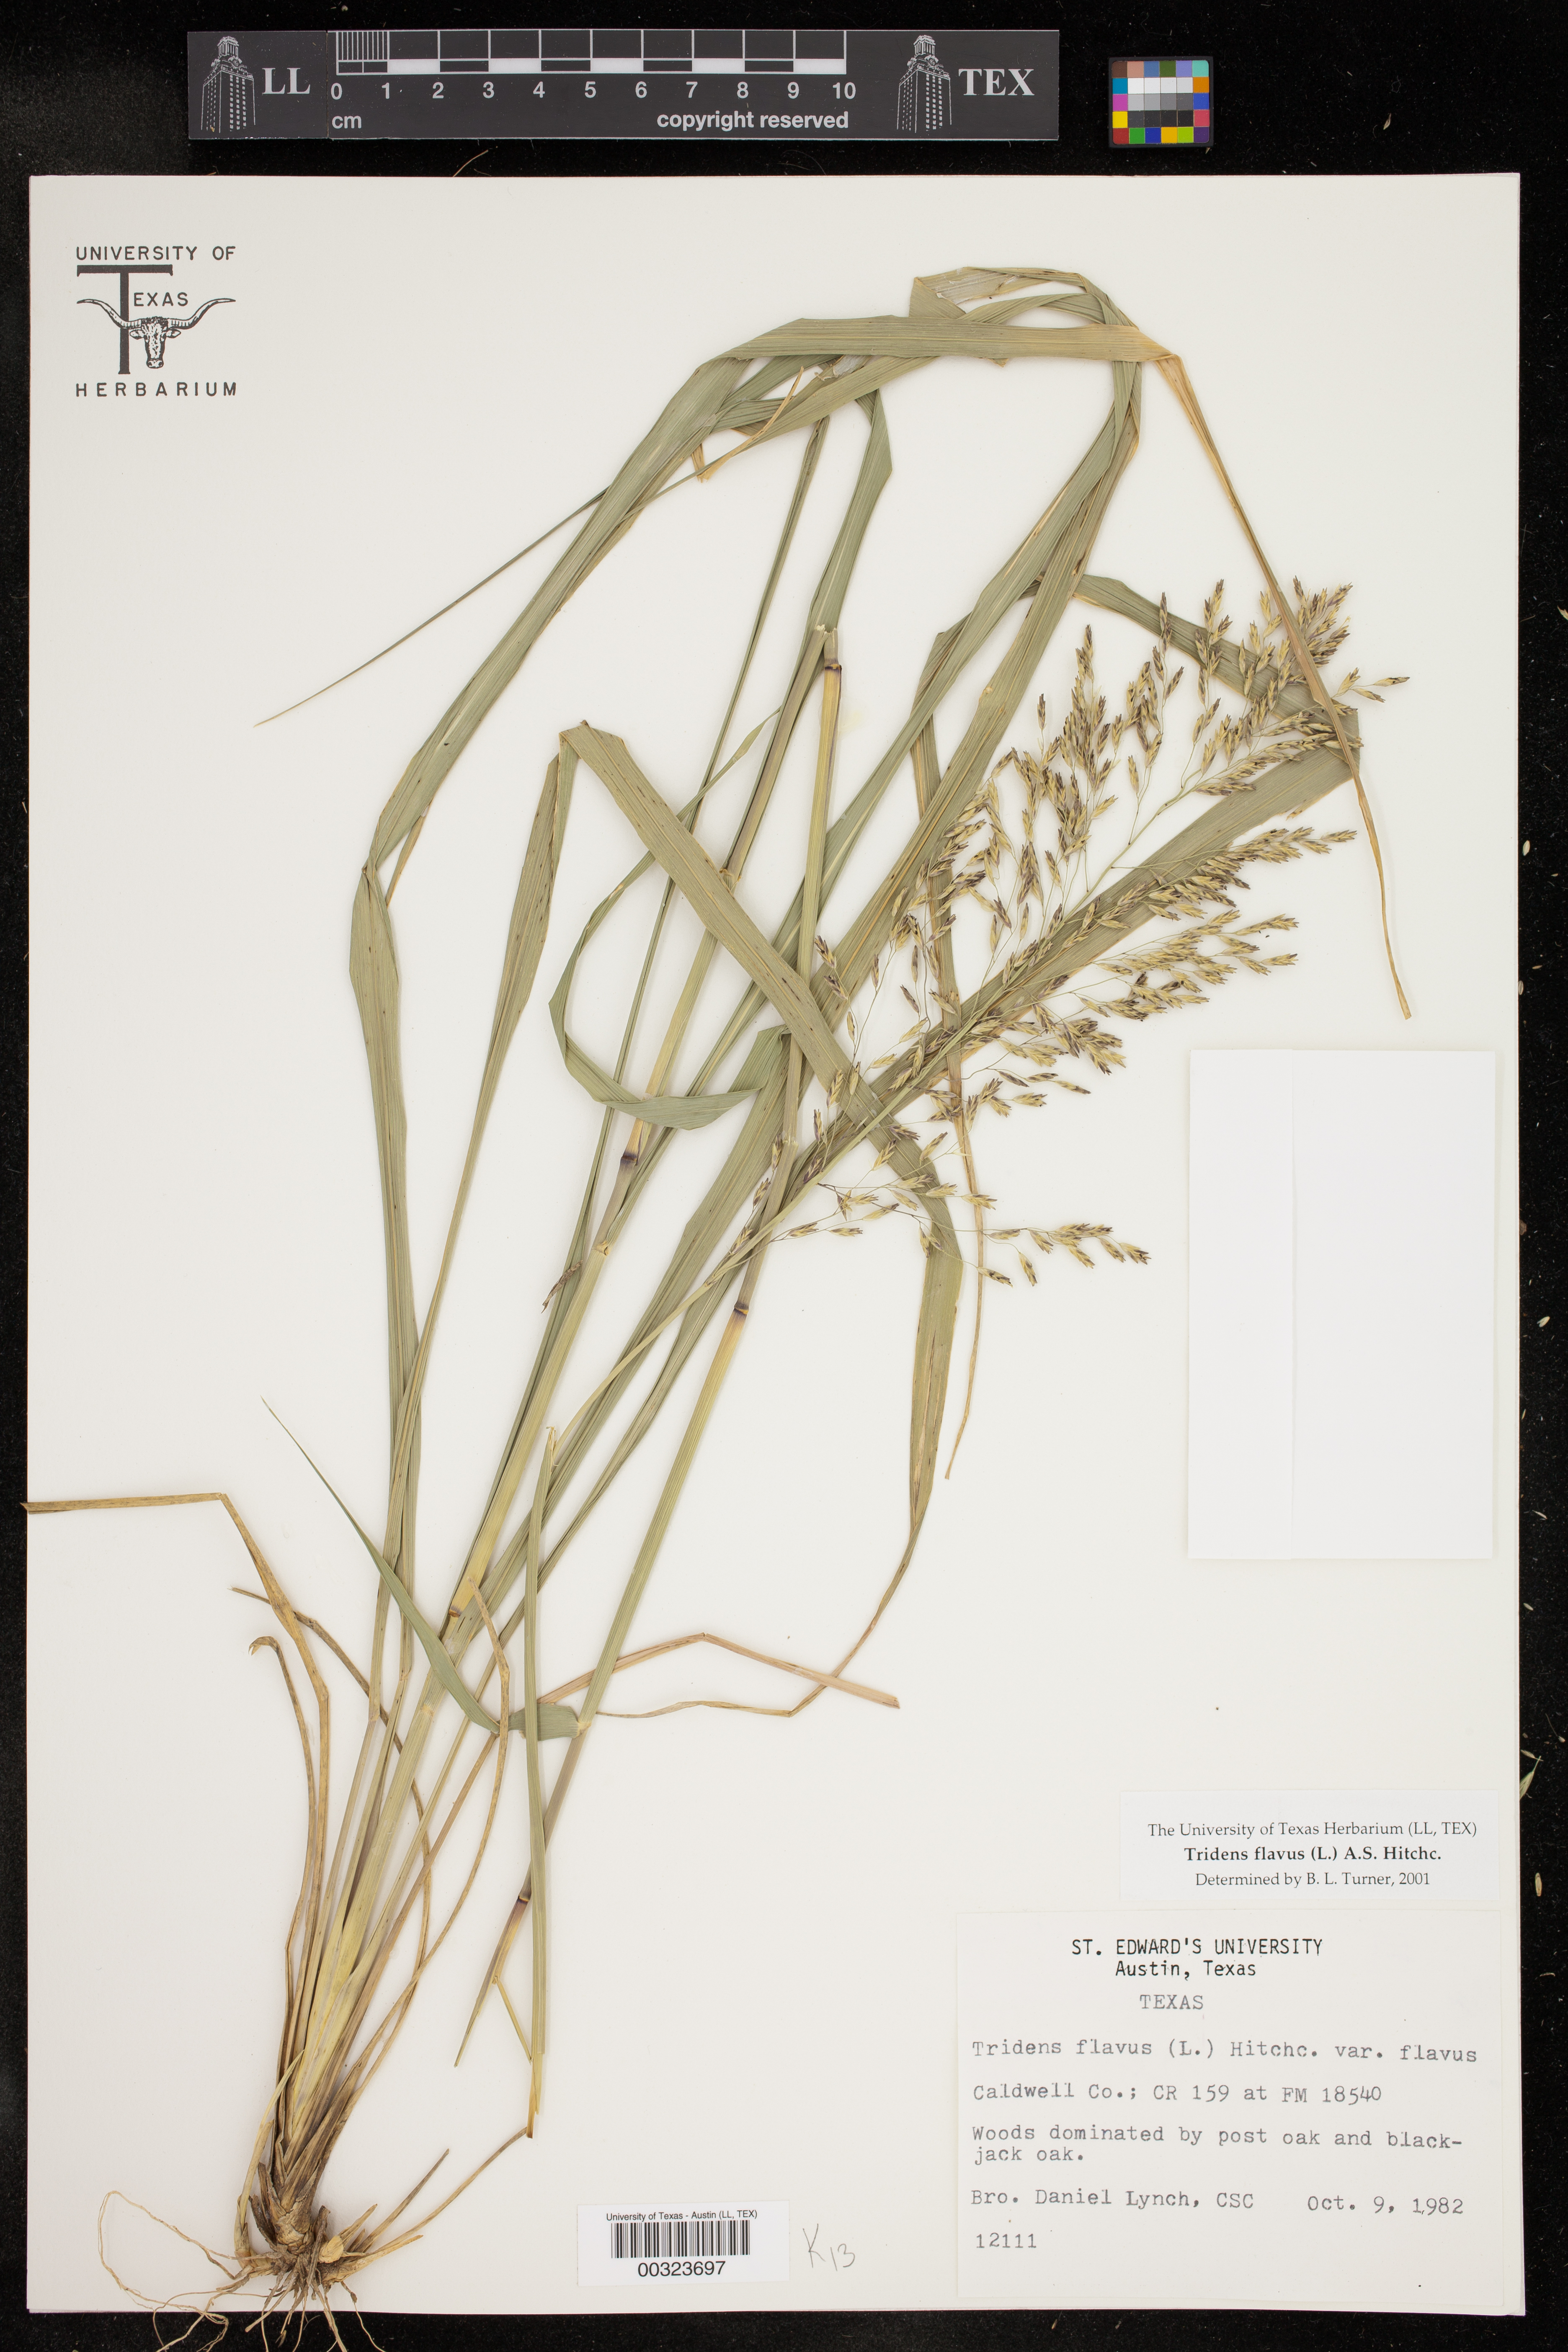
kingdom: Plantae
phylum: Tracheophyta
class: Liliopsida
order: Poales
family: Poaceae
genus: Tridens
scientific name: Tridens flavus
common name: Purpletop
